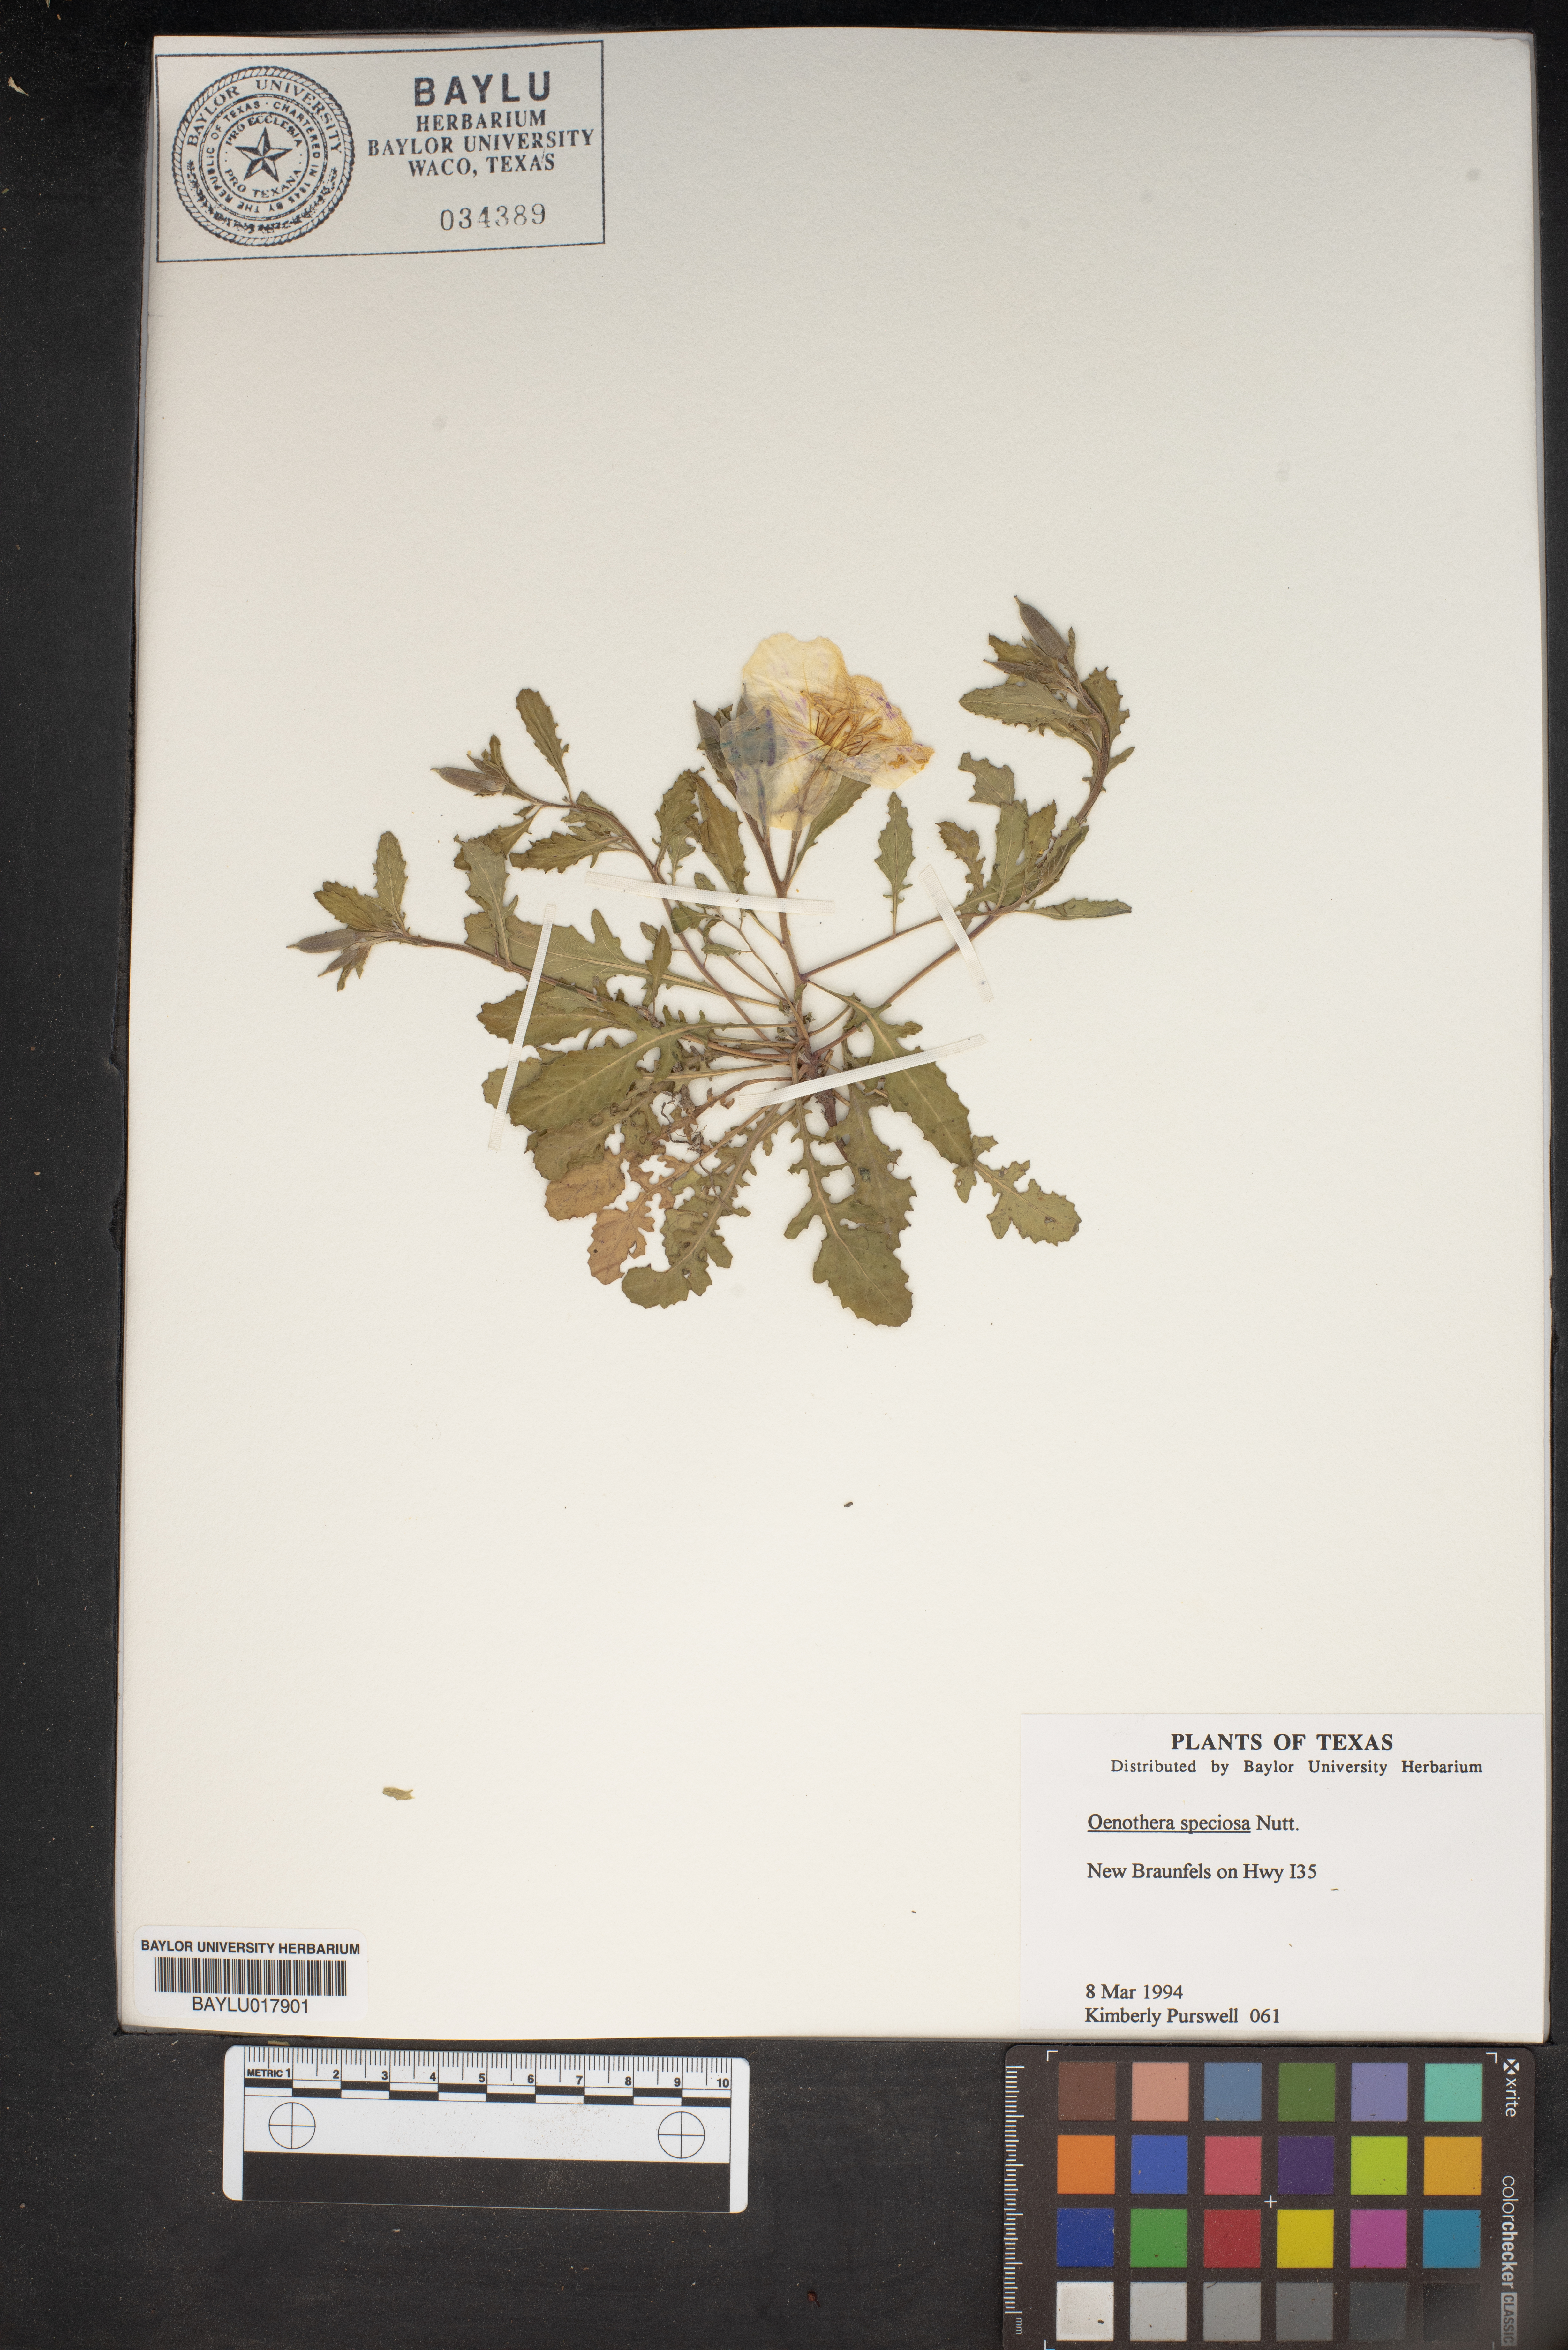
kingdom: Plantae
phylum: Tracheophyta
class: Magnoliopsida
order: Myrtales
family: Onagraceae
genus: Oenothera
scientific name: Oenothera speciosa
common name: White evening-primrose
